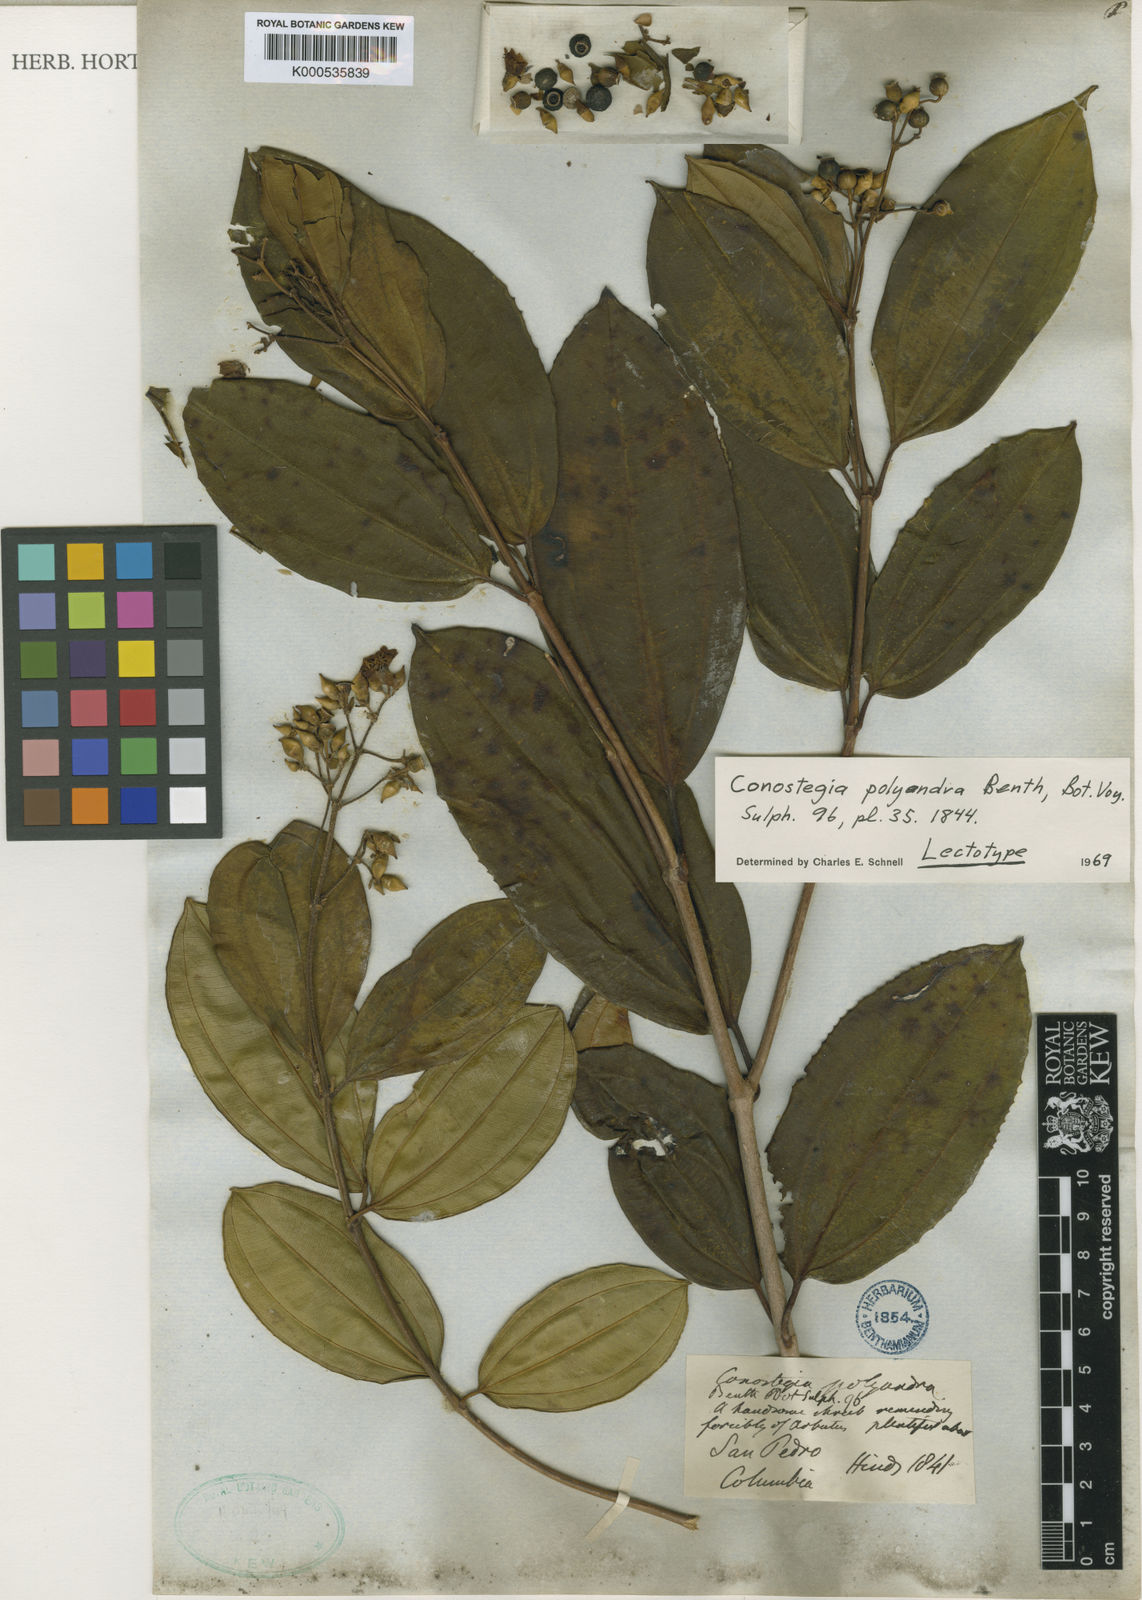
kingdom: Plantae
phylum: Tracheophyta
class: Magnoliopsida
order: Myrtales
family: Melastomataceae
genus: Miconia
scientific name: Miconia rupicola
